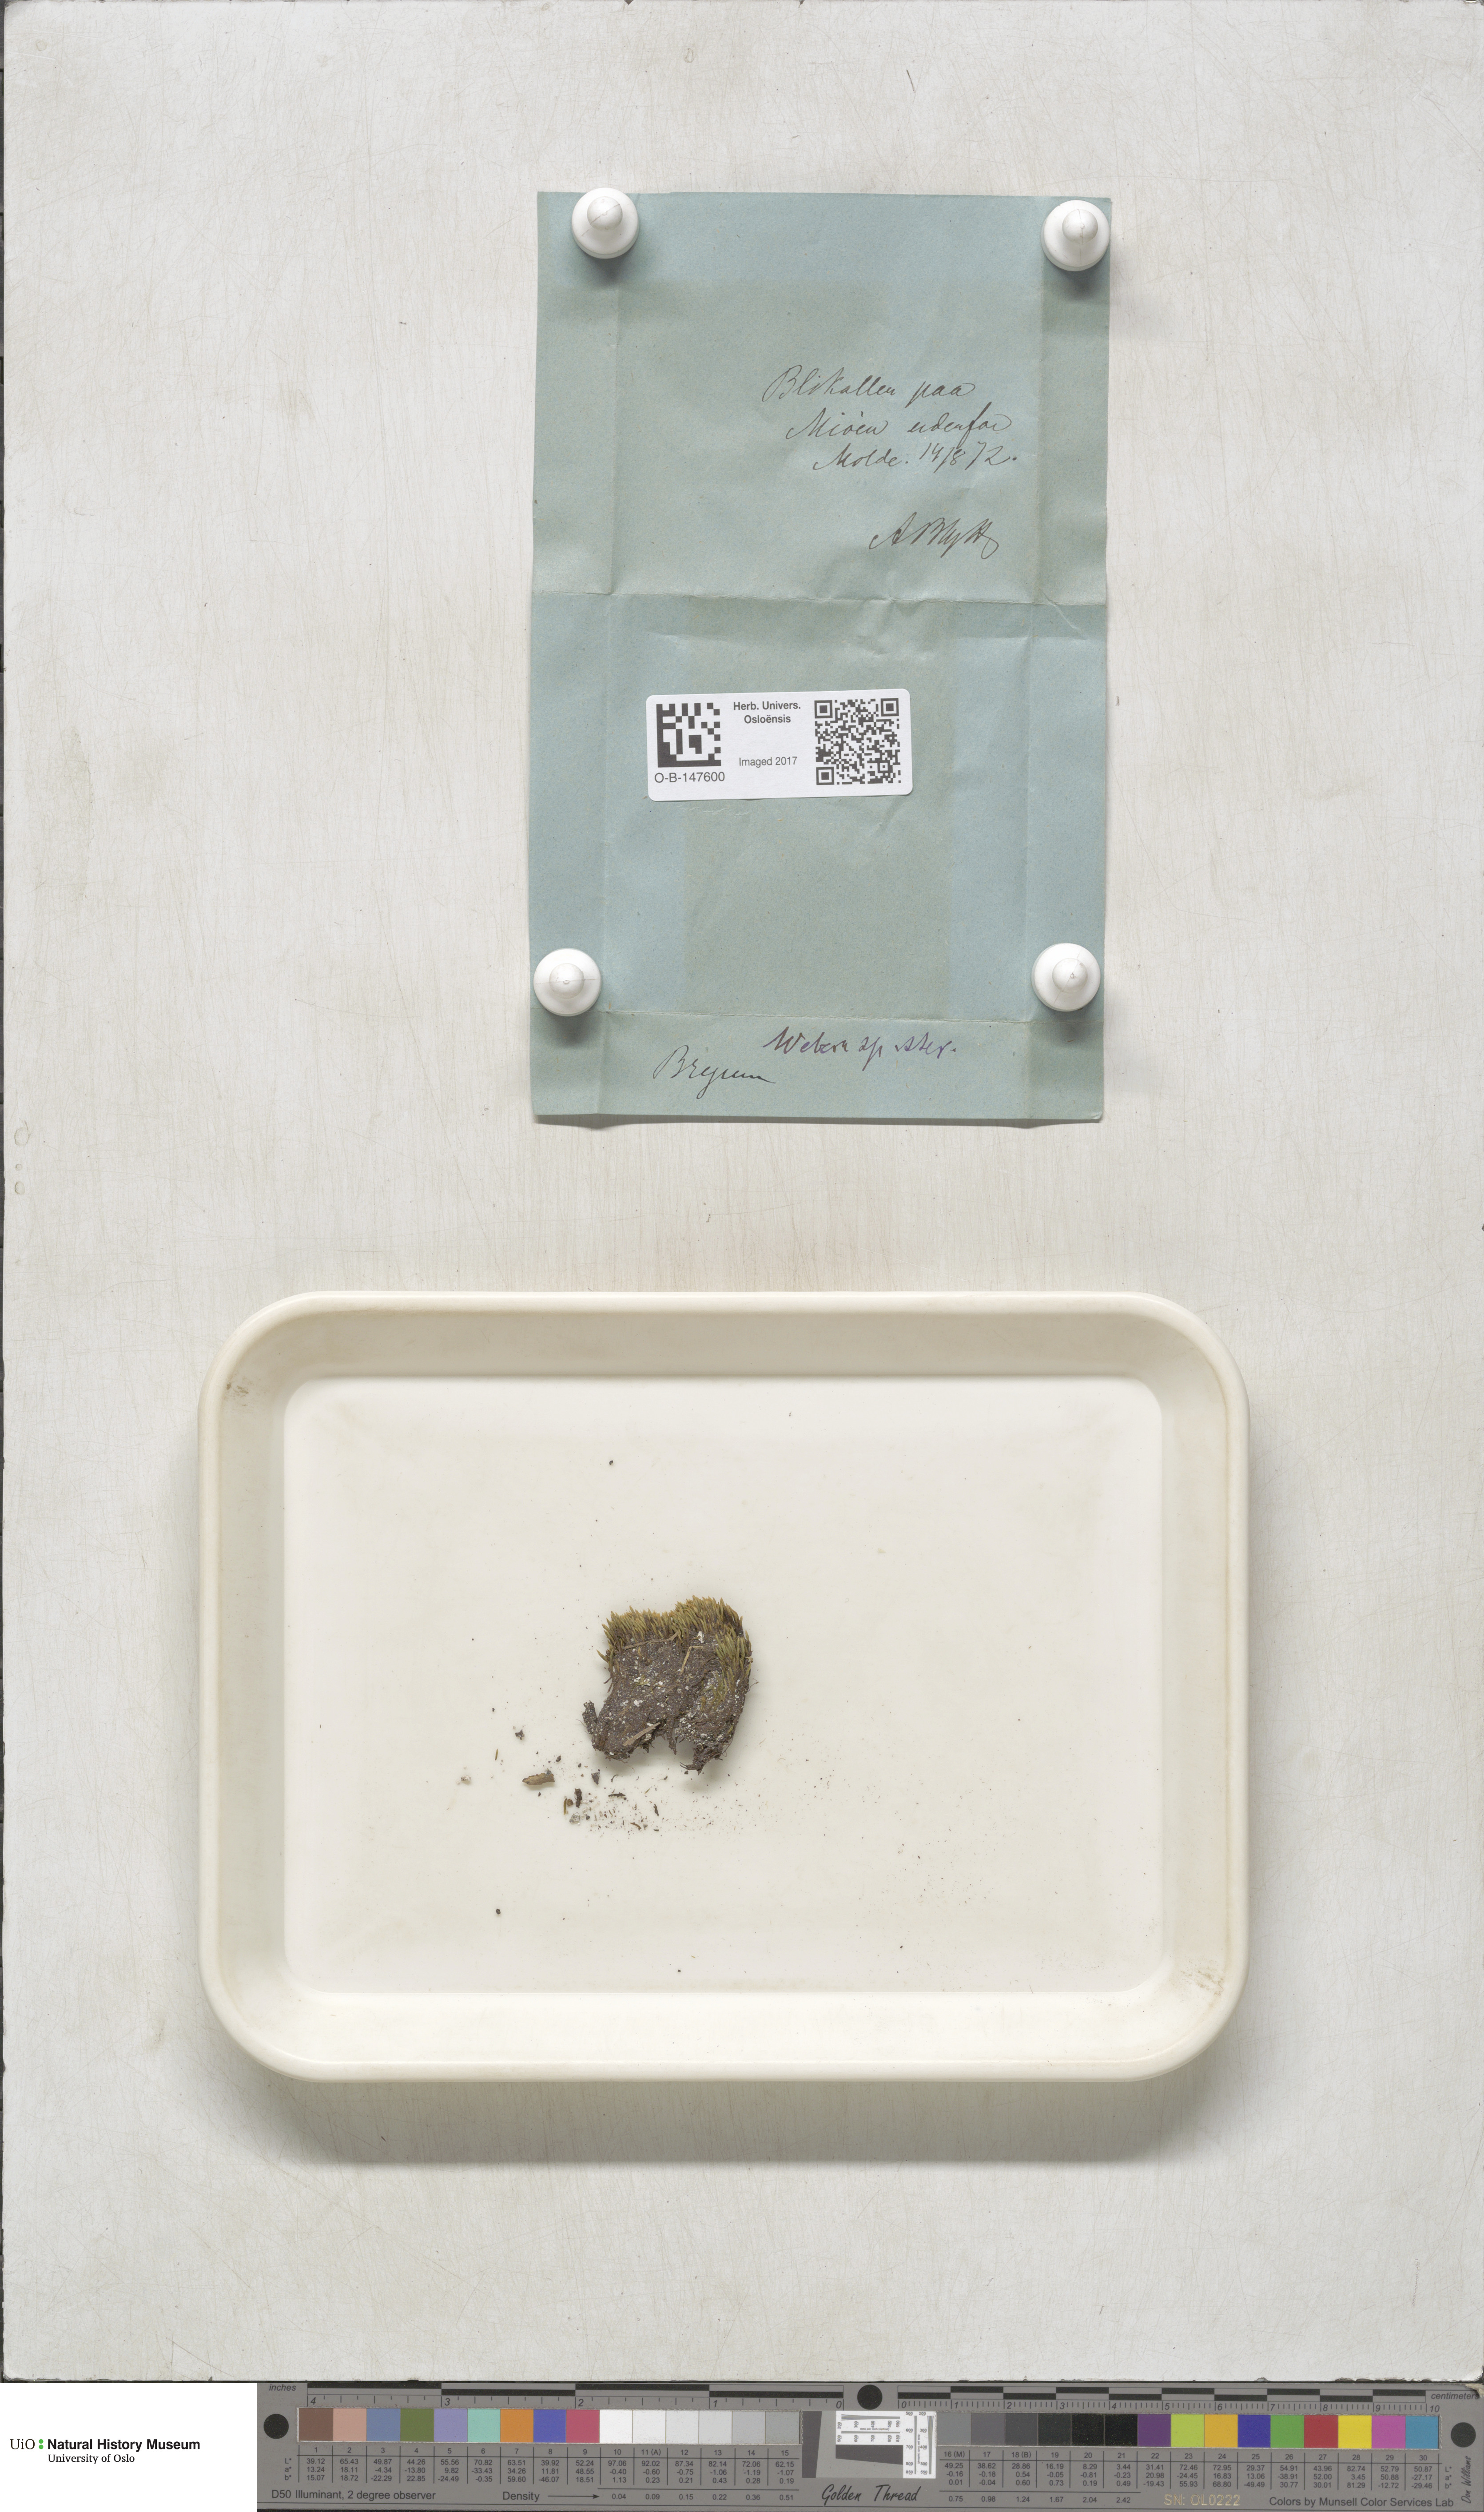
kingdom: Plantae
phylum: Bryophyta
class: Bryopsida
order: Bryales
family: Mniaceae
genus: Pohlia
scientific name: Pohlia
